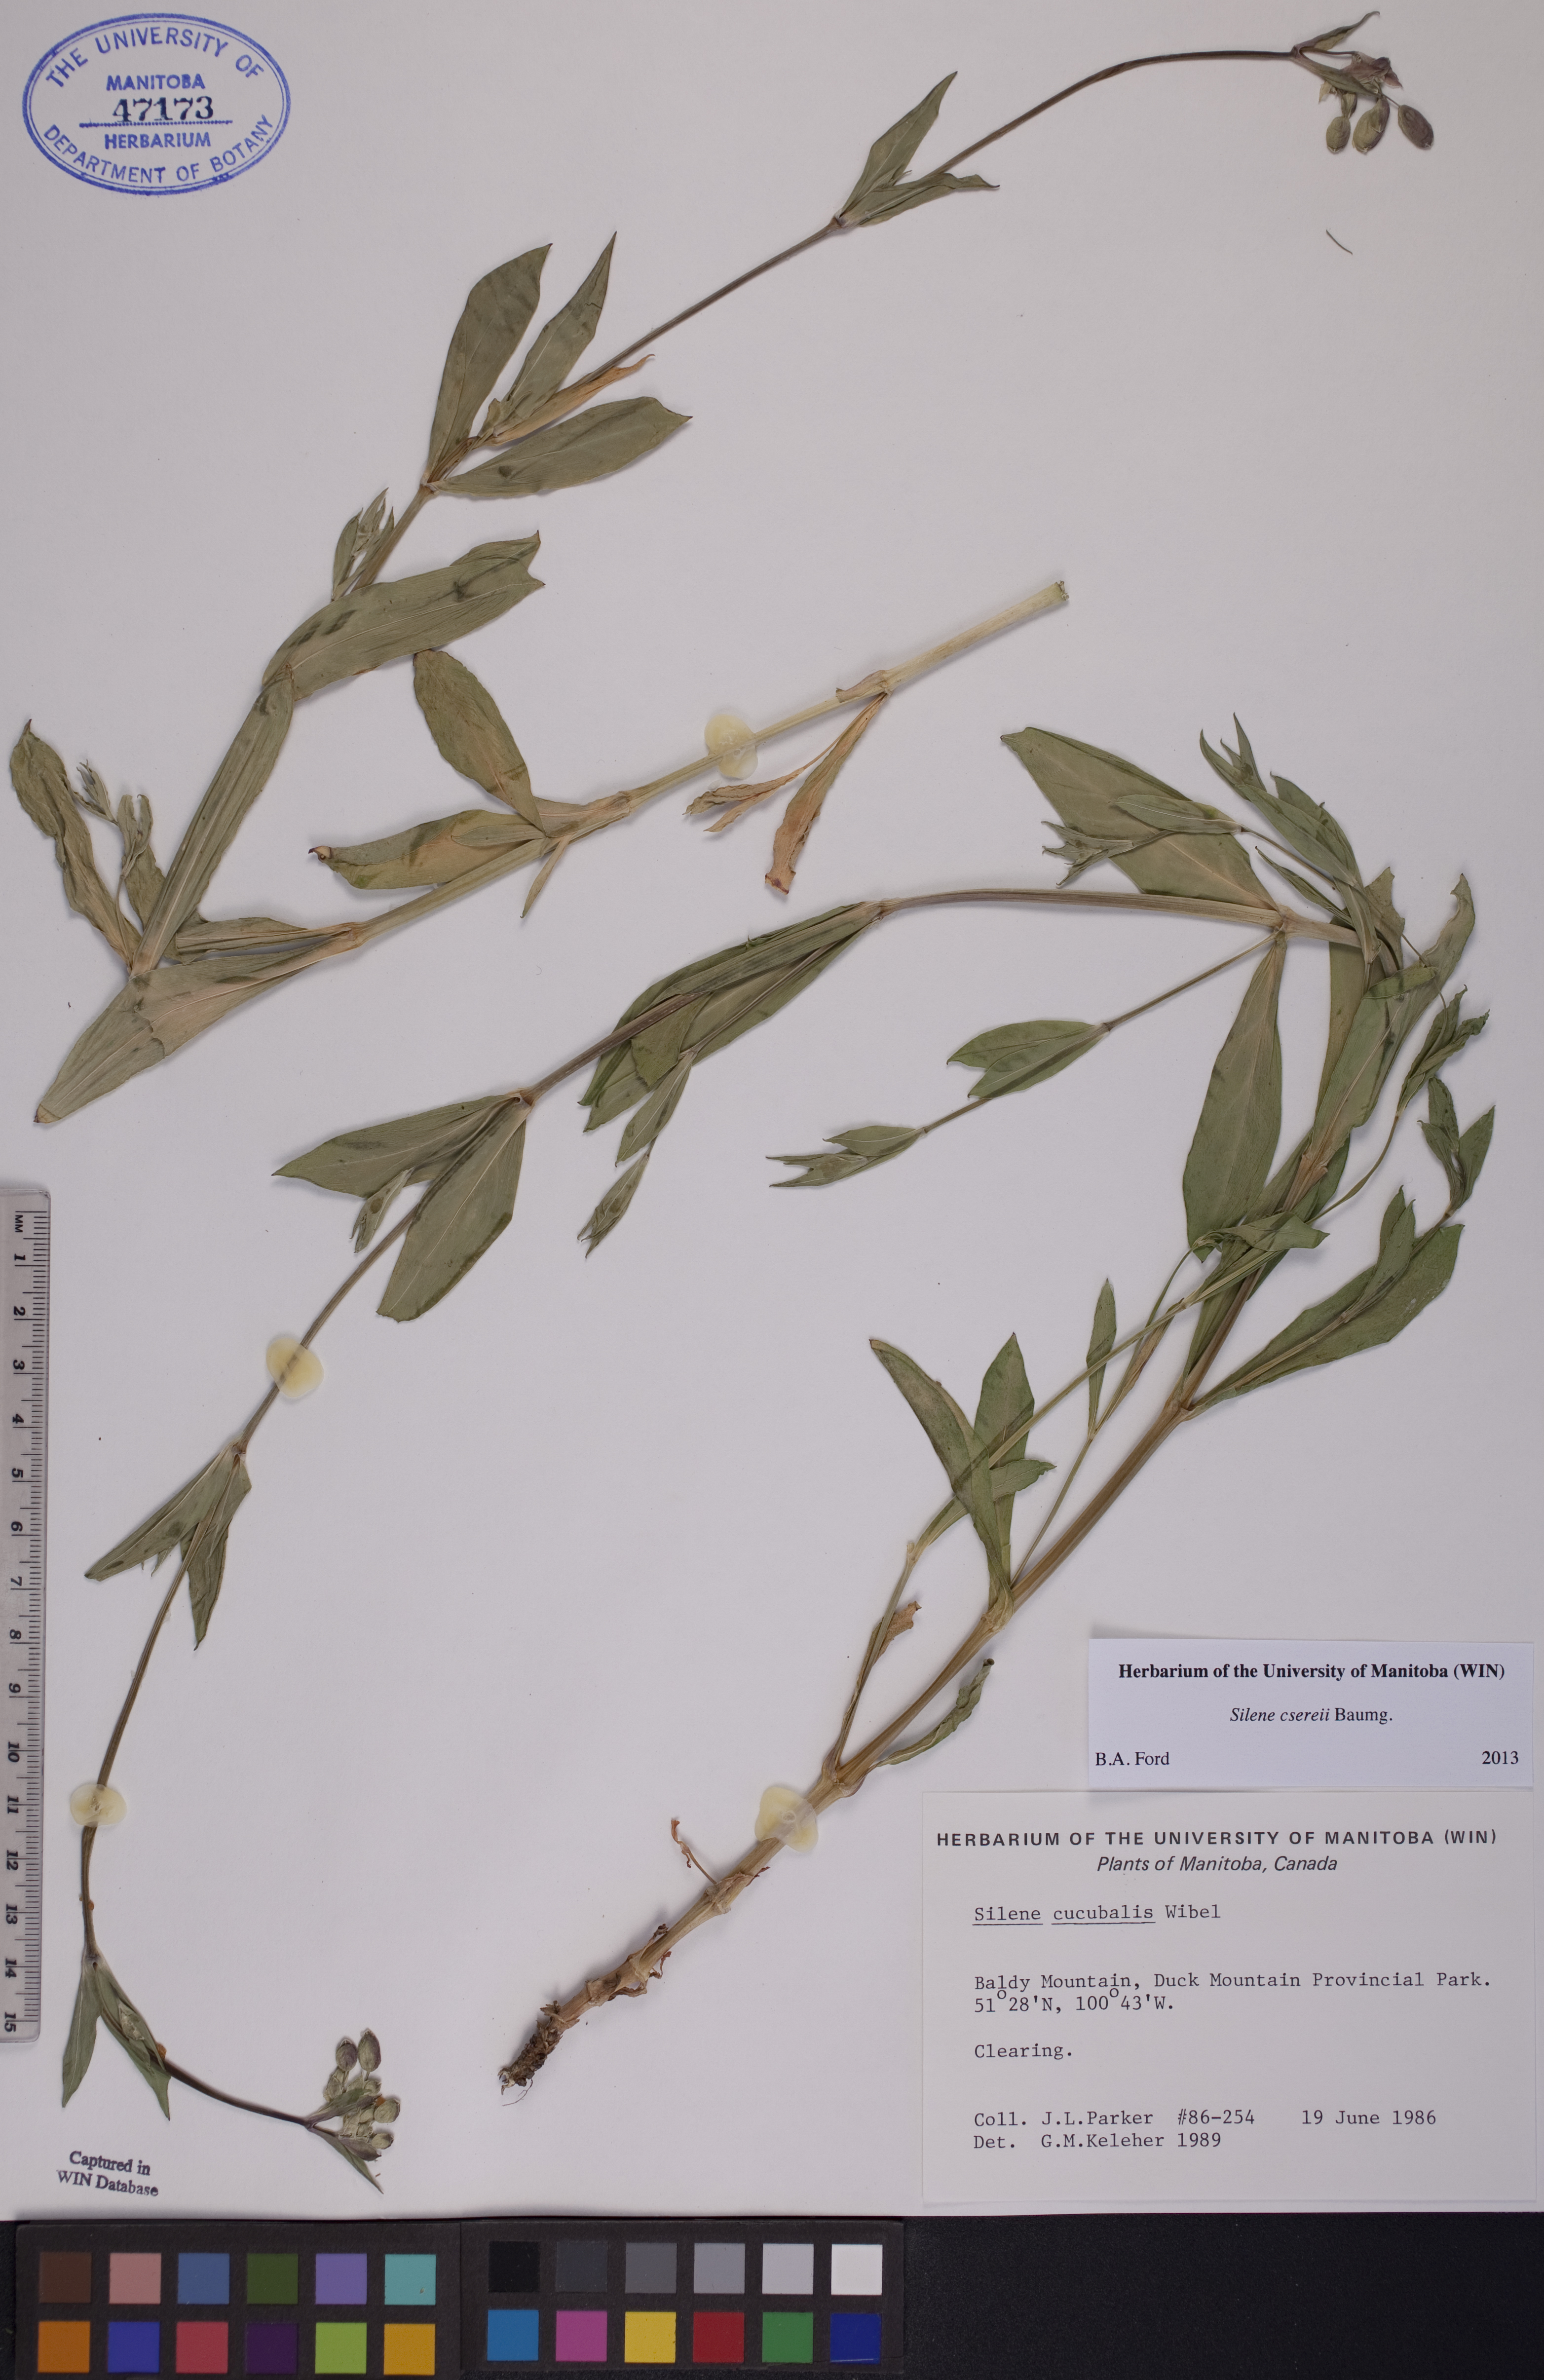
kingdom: Plantae
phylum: Tracheophyta
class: Magnoliopsida
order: Caryophyllales
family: Caryophyllaceae
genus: Silene
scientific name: Silene csereii
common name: Balkan catchfly
